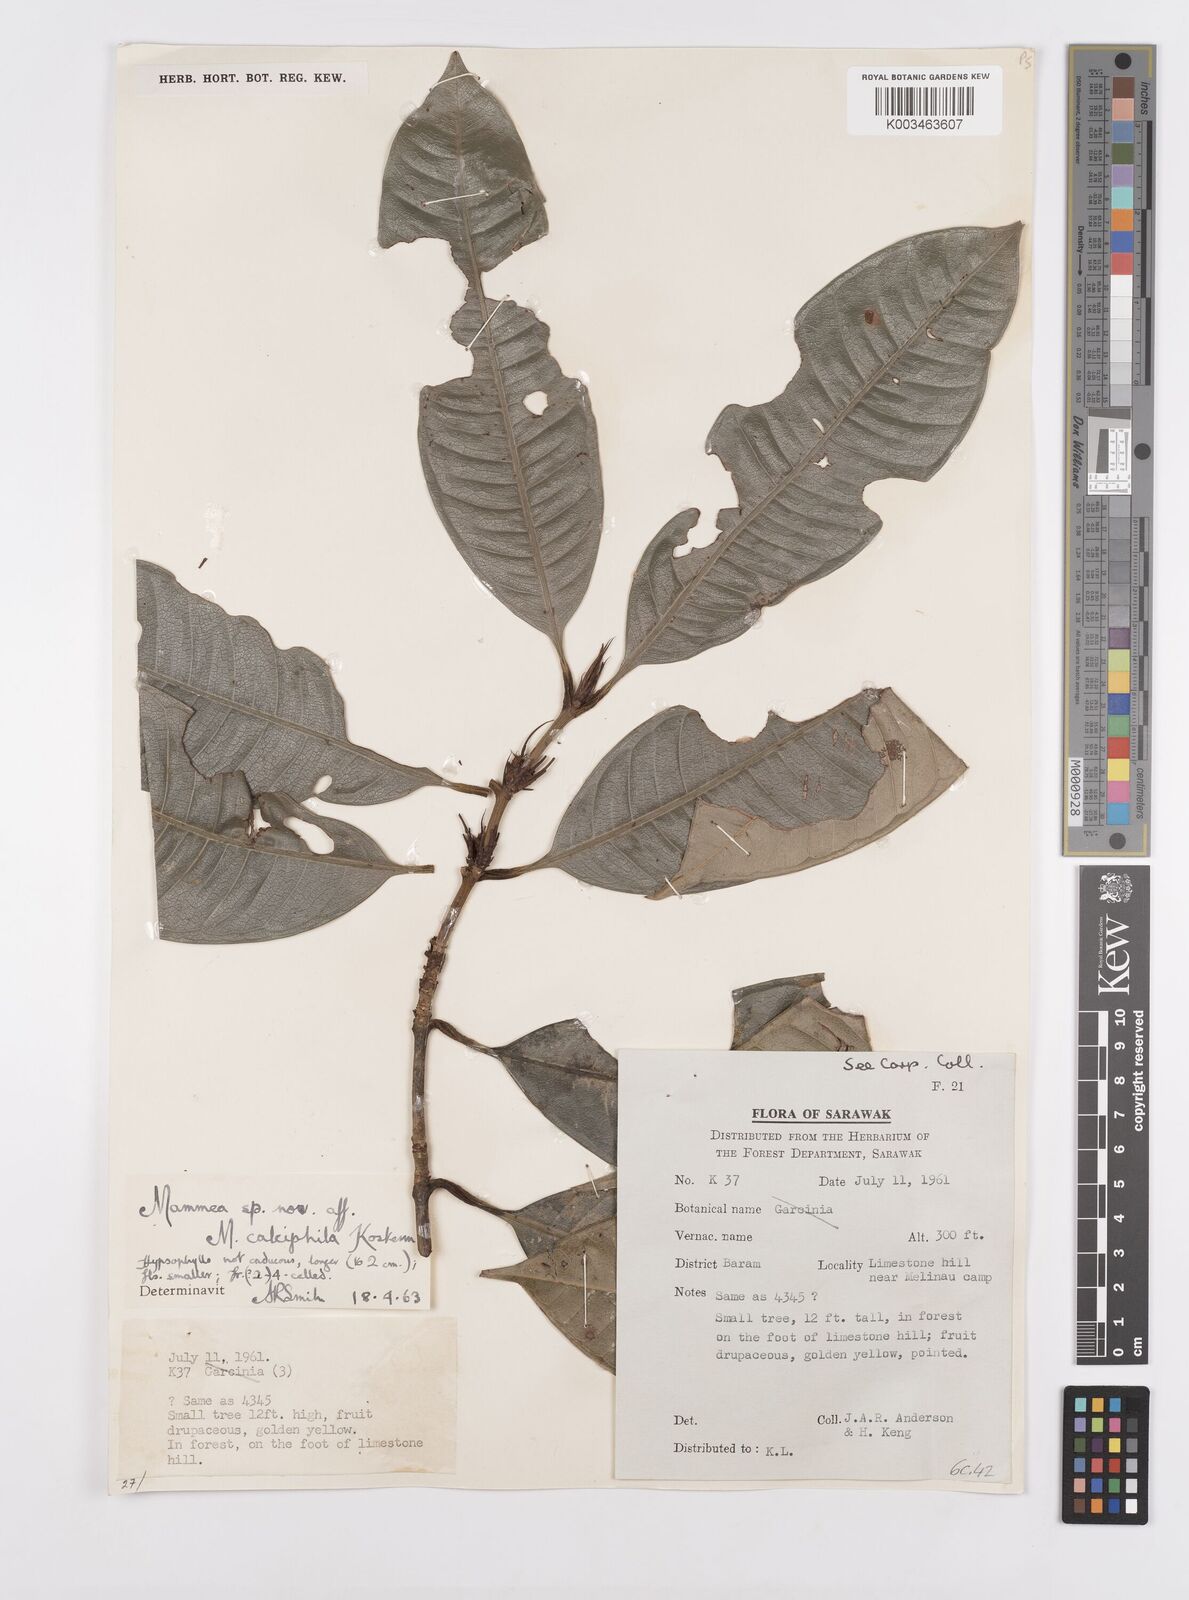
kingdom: Plantae
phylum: Tracheophyta
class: Magnoliopsida
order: Malpighiales
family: Calophyllaceae
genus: Mammea
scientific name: Mammea calciphila
